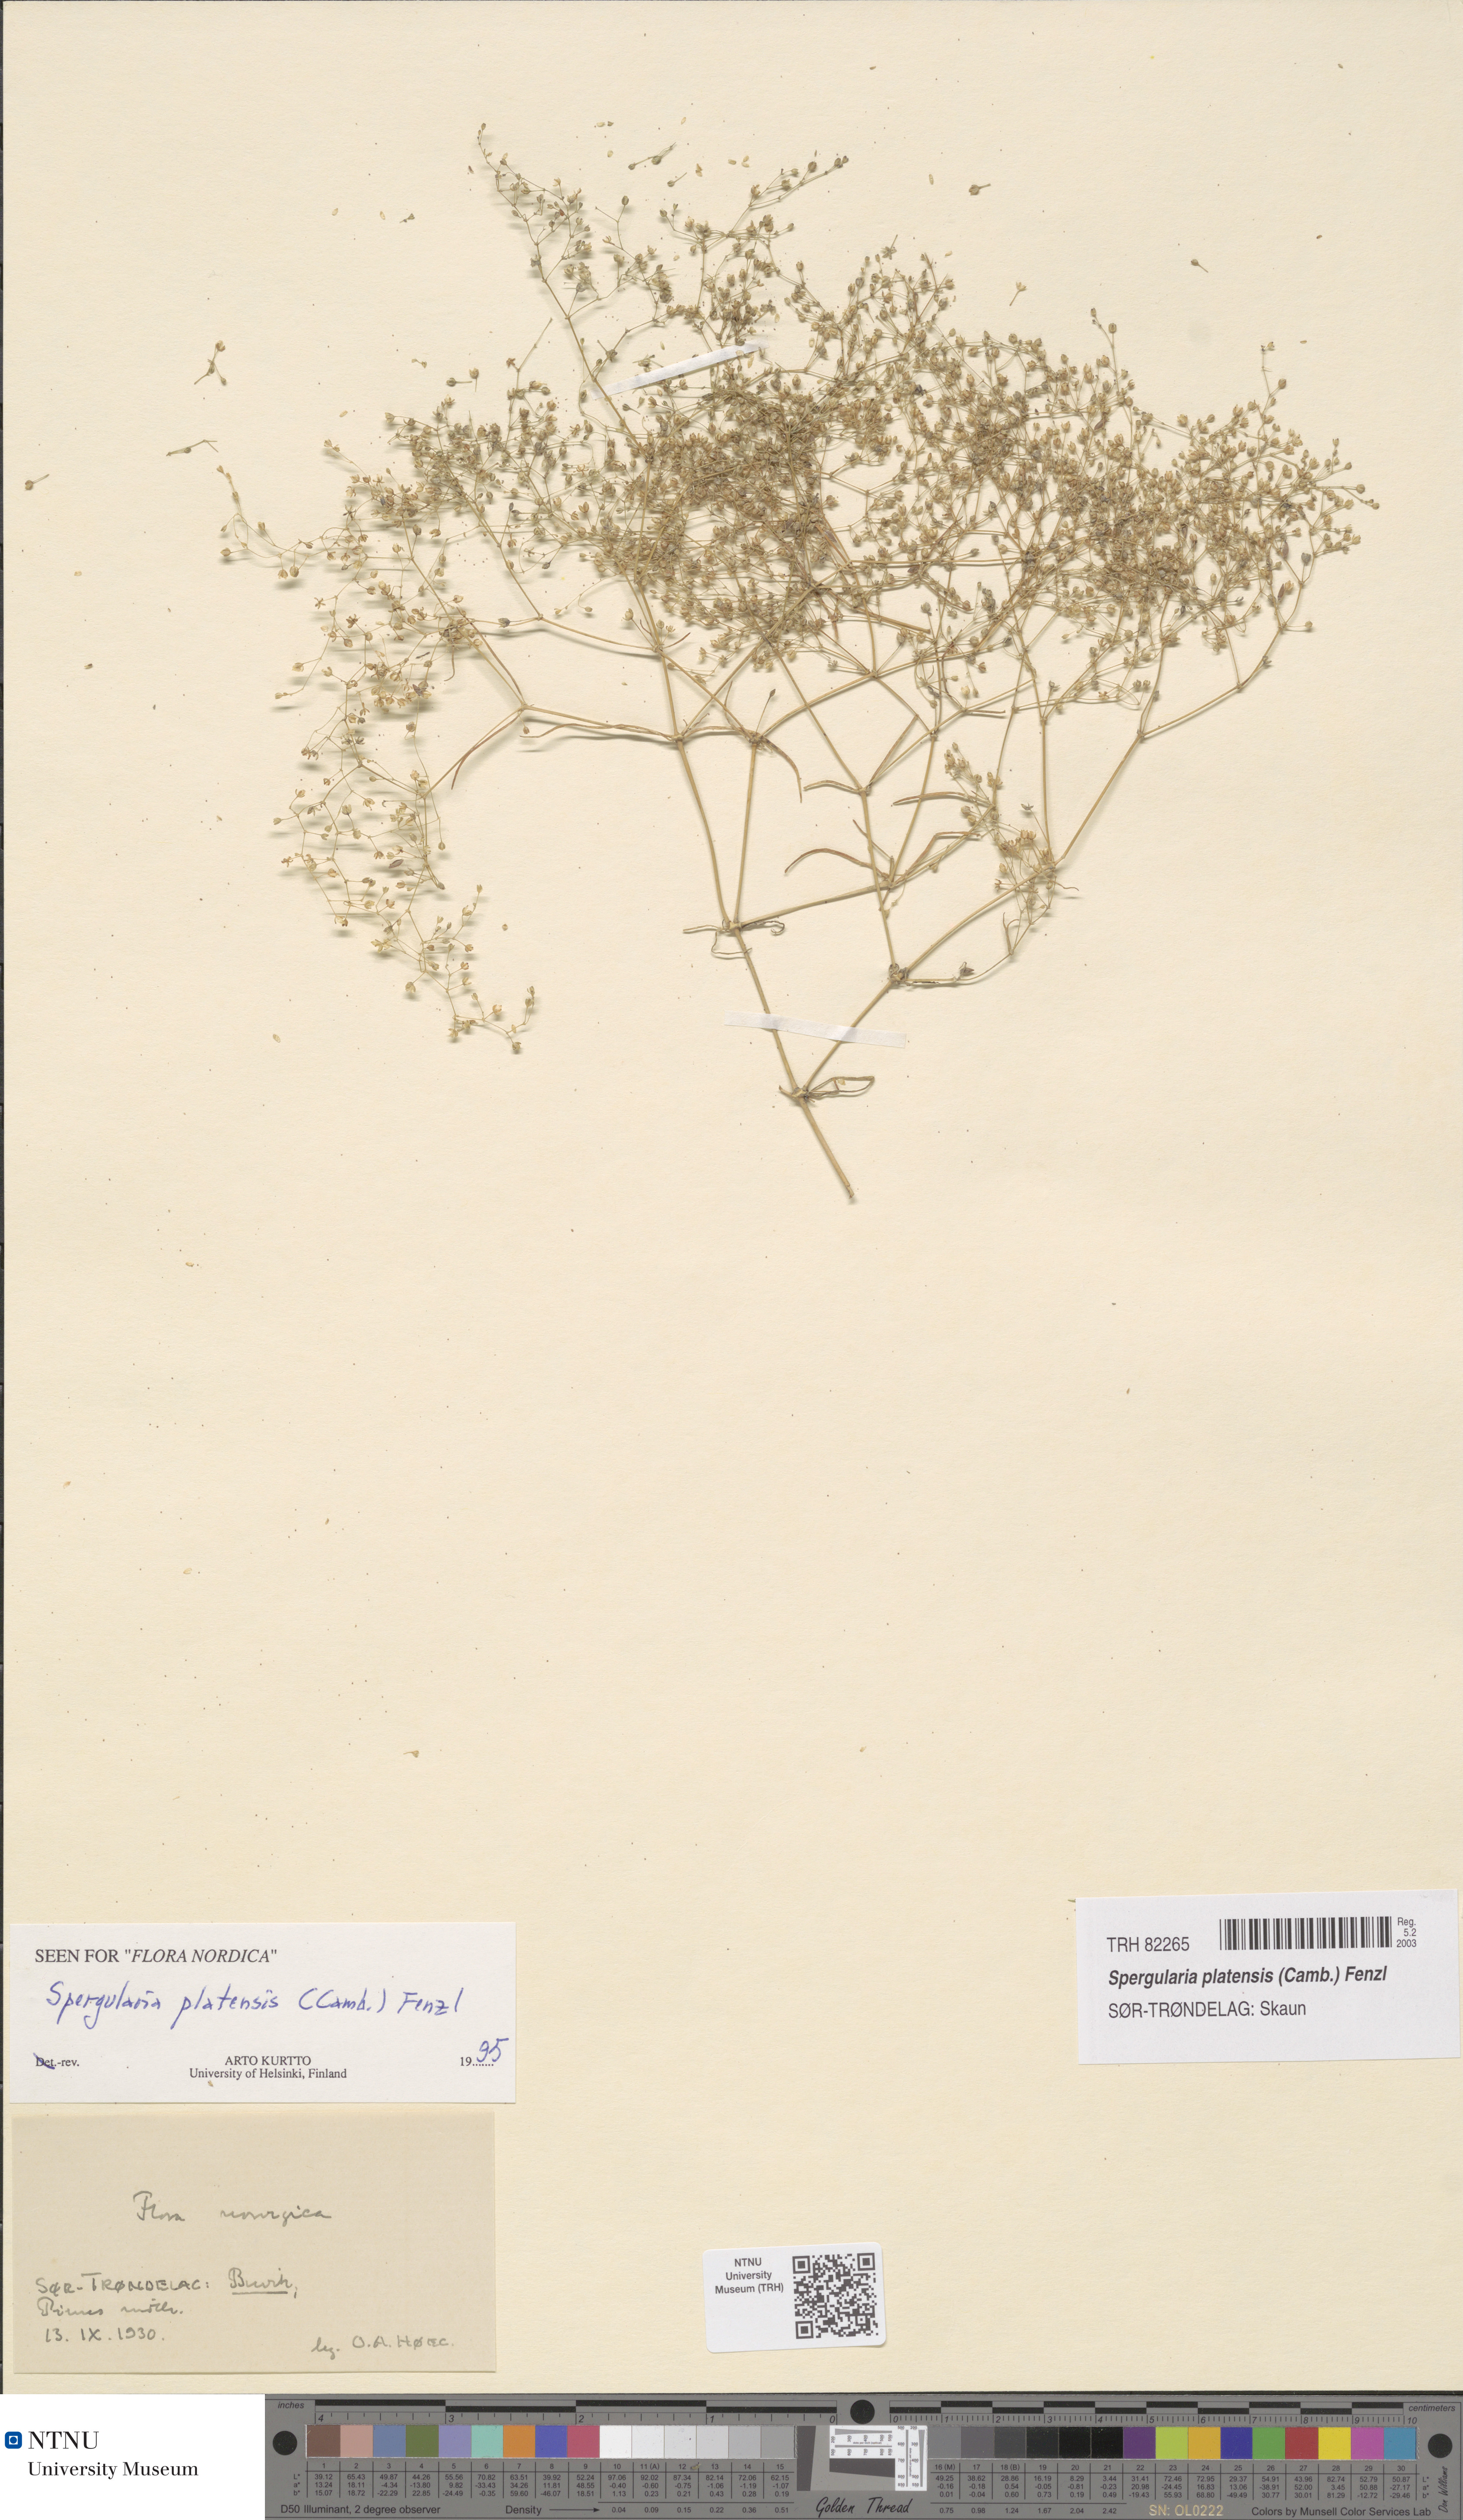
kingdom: Plantae
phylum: Tracheophyta
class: Magnoliopsida
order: Caryophyllales
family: Caryophyllaceae
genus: Spergula
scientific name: Spergula platensis
